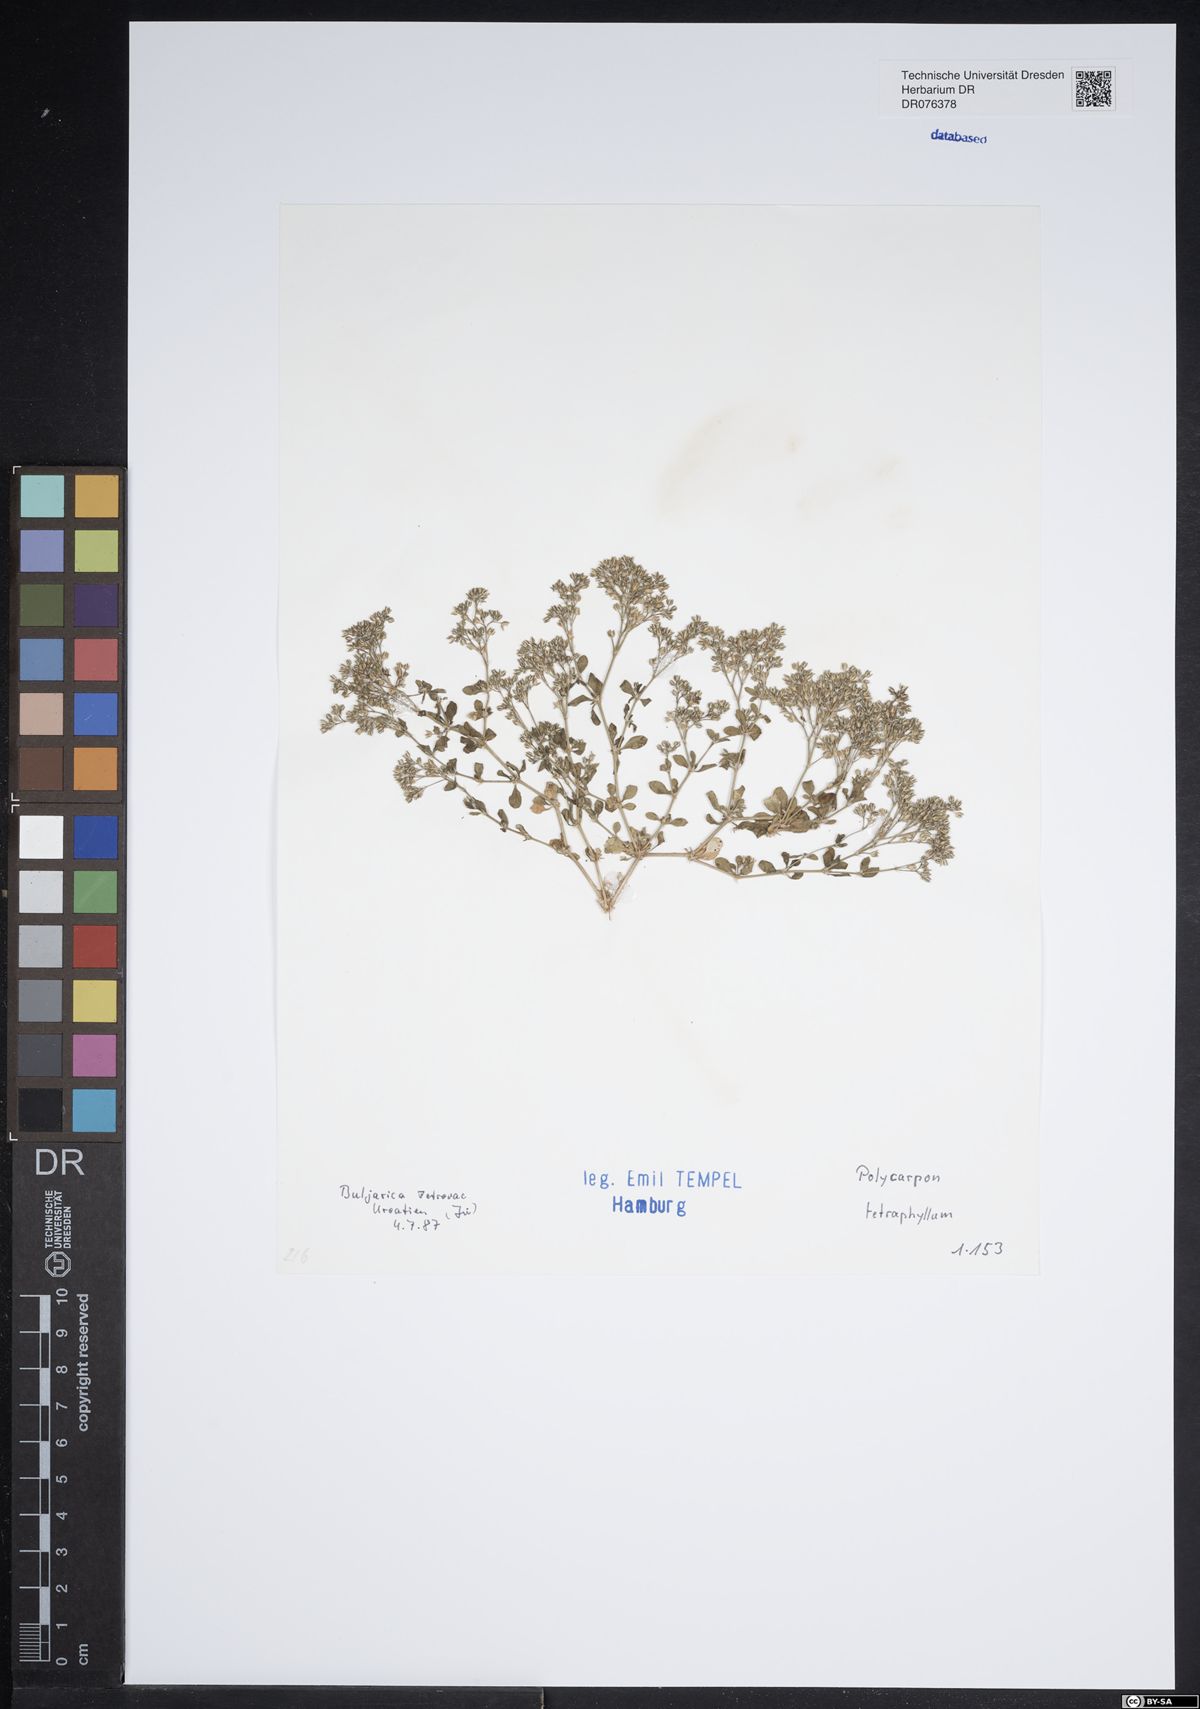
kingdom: Plantae
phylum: Tracheophyta
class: Magnoliopsida
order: Caryophyllales
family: Caryophyllaceae
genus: Polycarpon
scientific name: Polycarpon tetraphyllum
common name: Four-leaved all-seed
